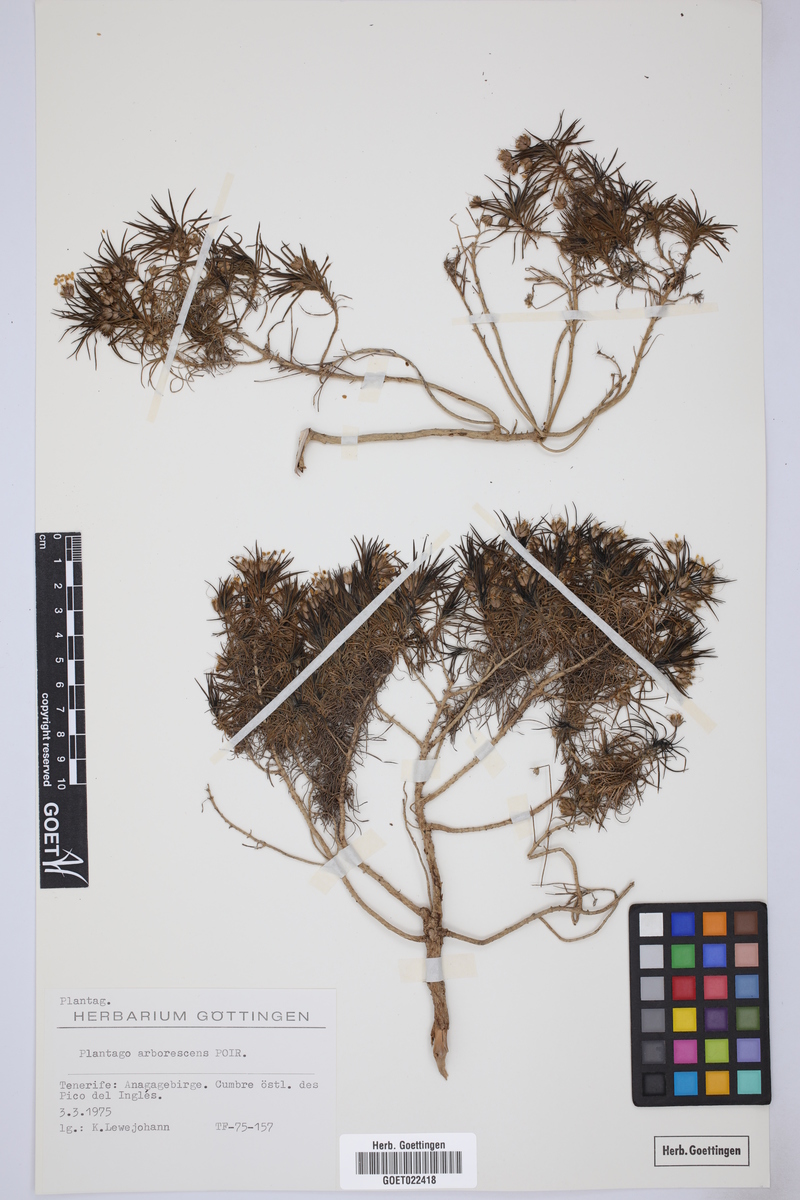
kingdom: Plantae
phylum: Tracheophyta
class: Magnoliopsida
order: Lamiales
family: Plantaginaceae
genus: Plantago
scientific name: Plantago arborescens
